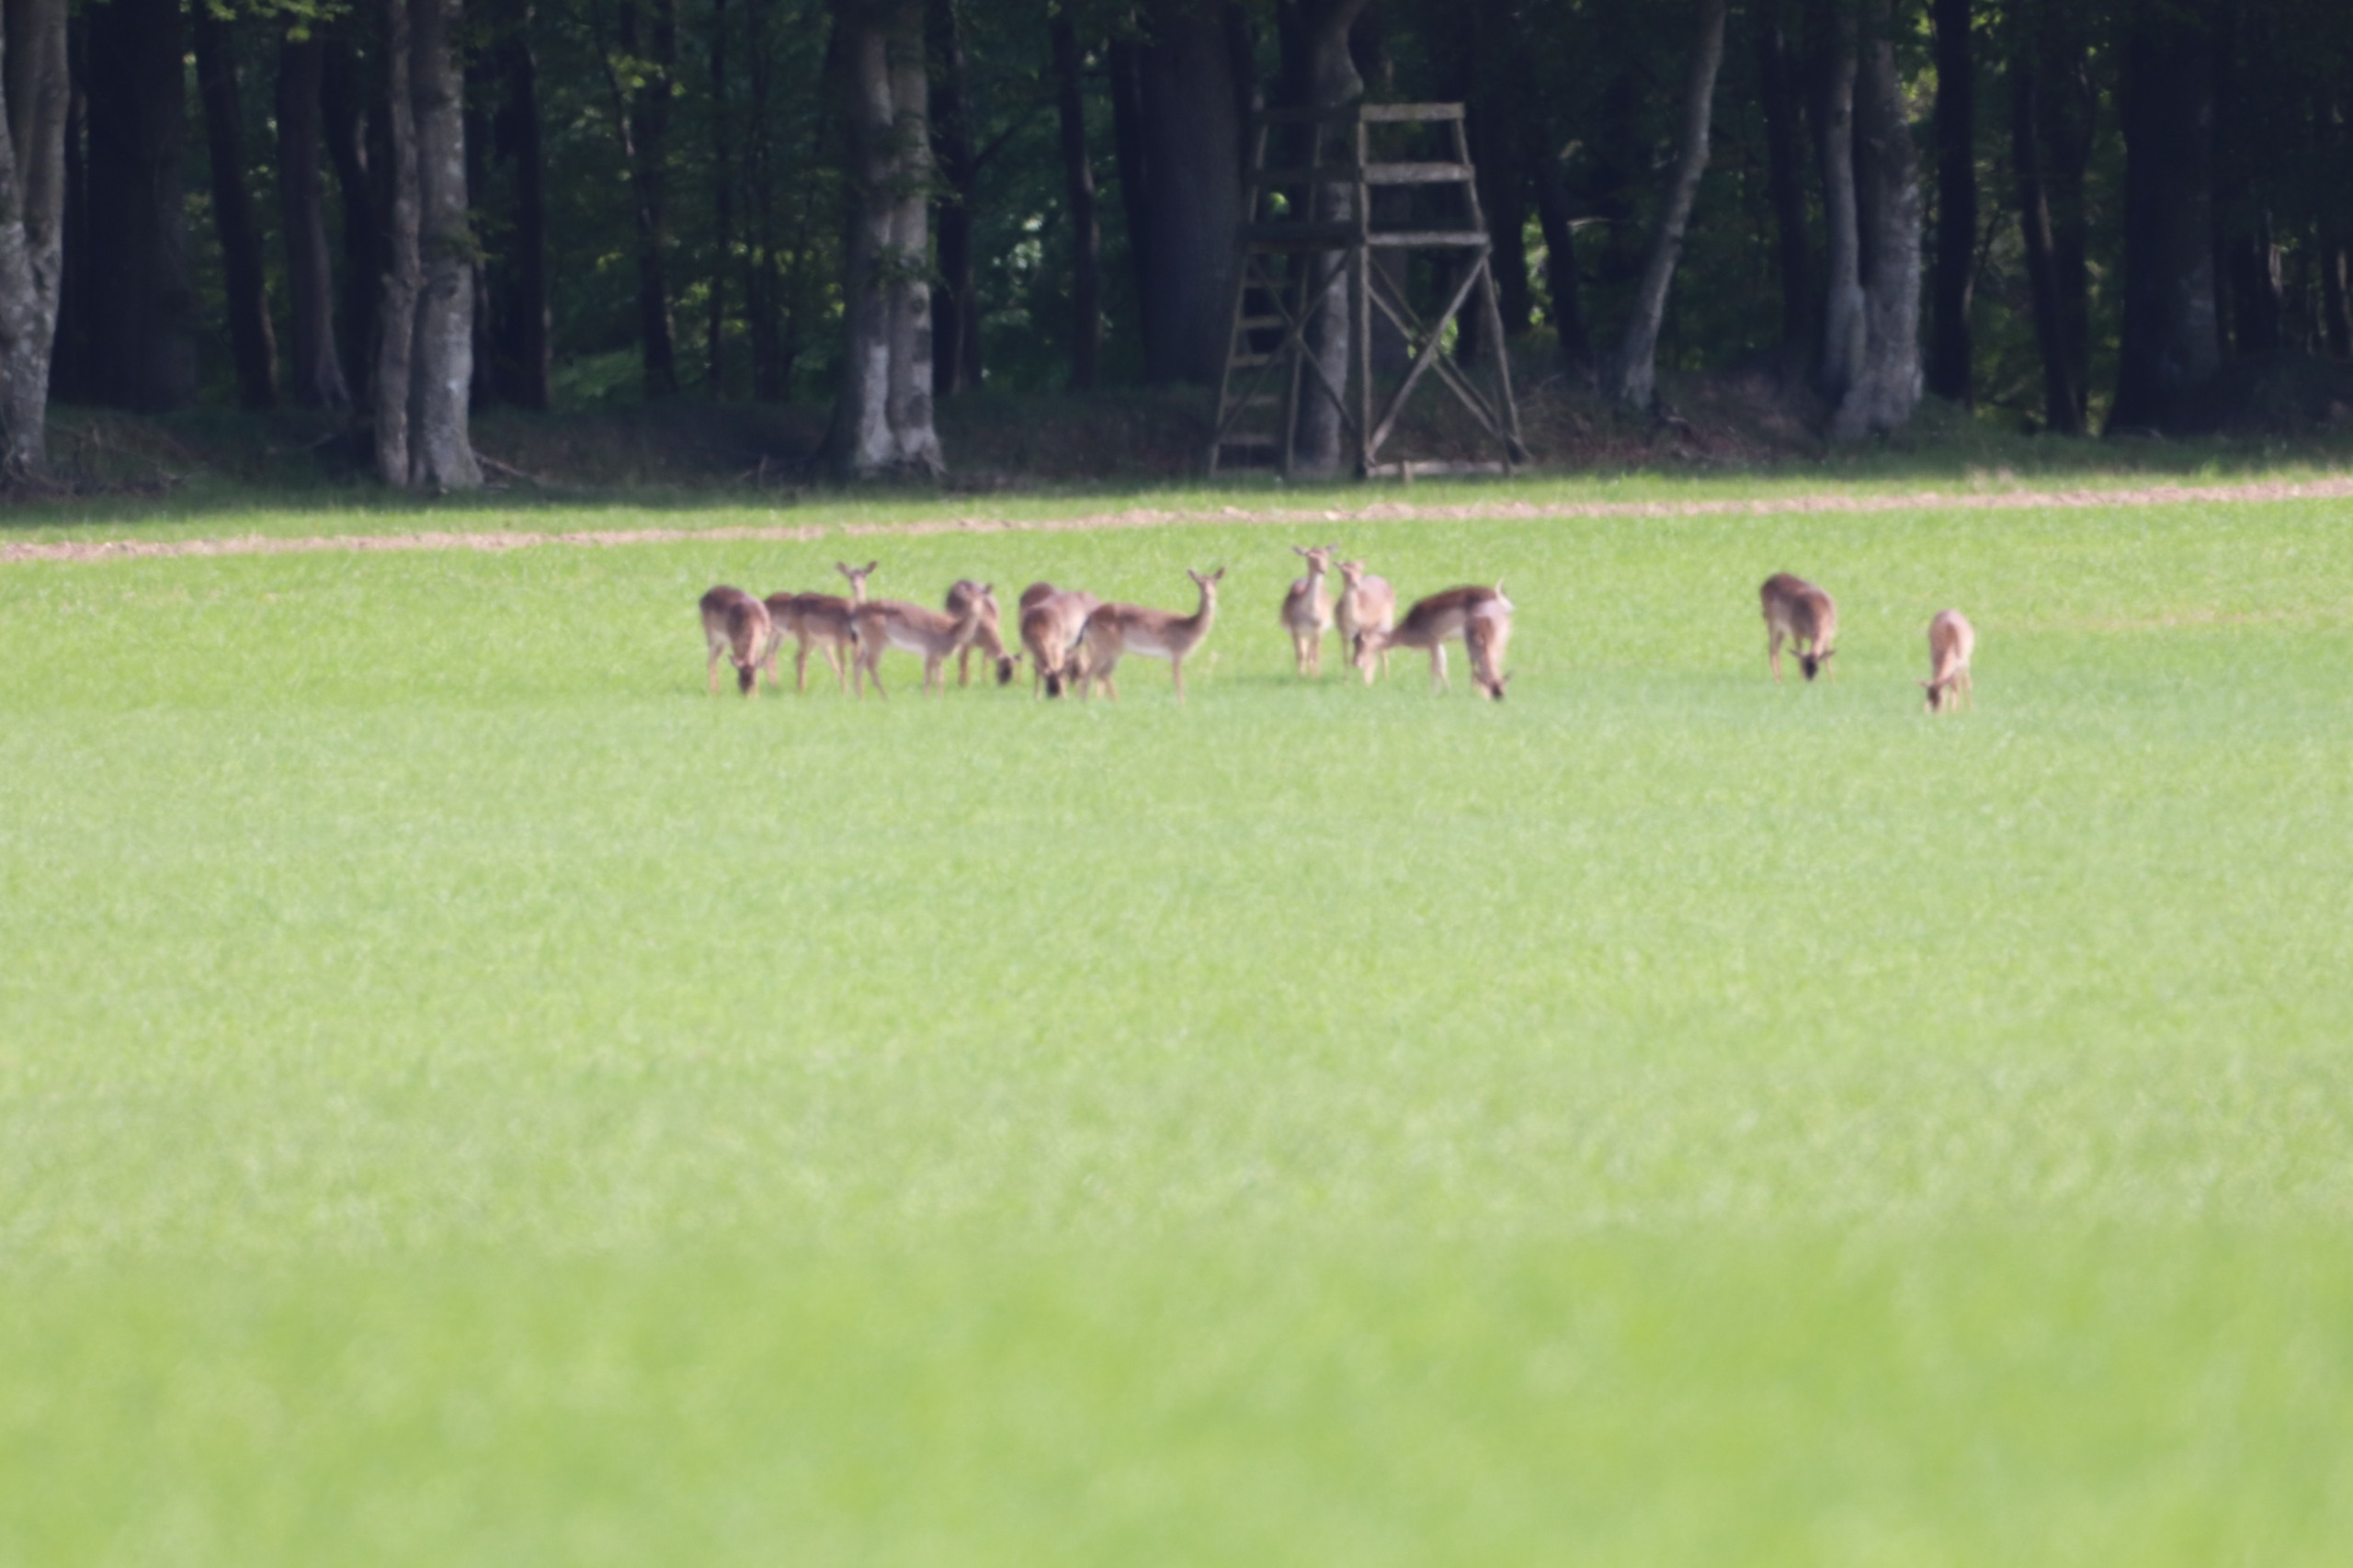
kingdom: Animalia
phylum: Chordata
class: Mammalia
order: Artiodactyla
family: Cervidae
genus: Dama
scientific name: Dama dama
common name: Dådyr
